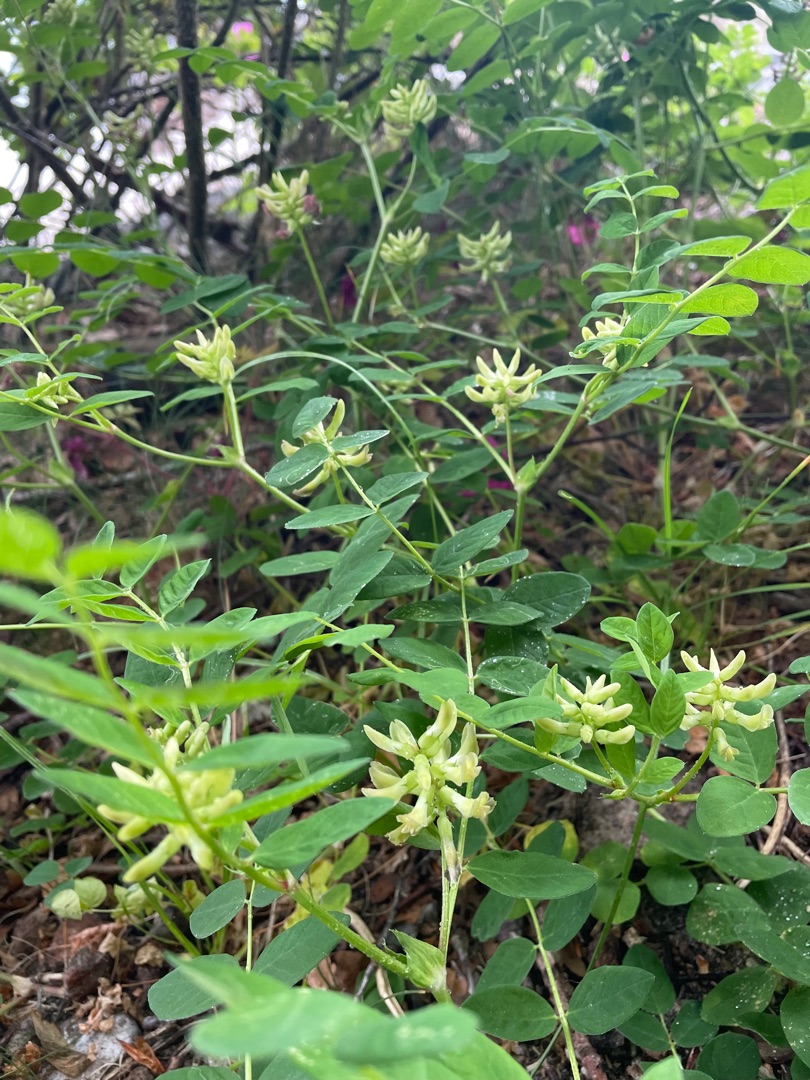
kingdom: Plantae
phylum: Tracheophyta
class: Magnoliopsida
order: Fabales
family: Fabaceae
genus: Astragalus
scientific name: Astragalus glycyphyllos
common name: Sød astragel
